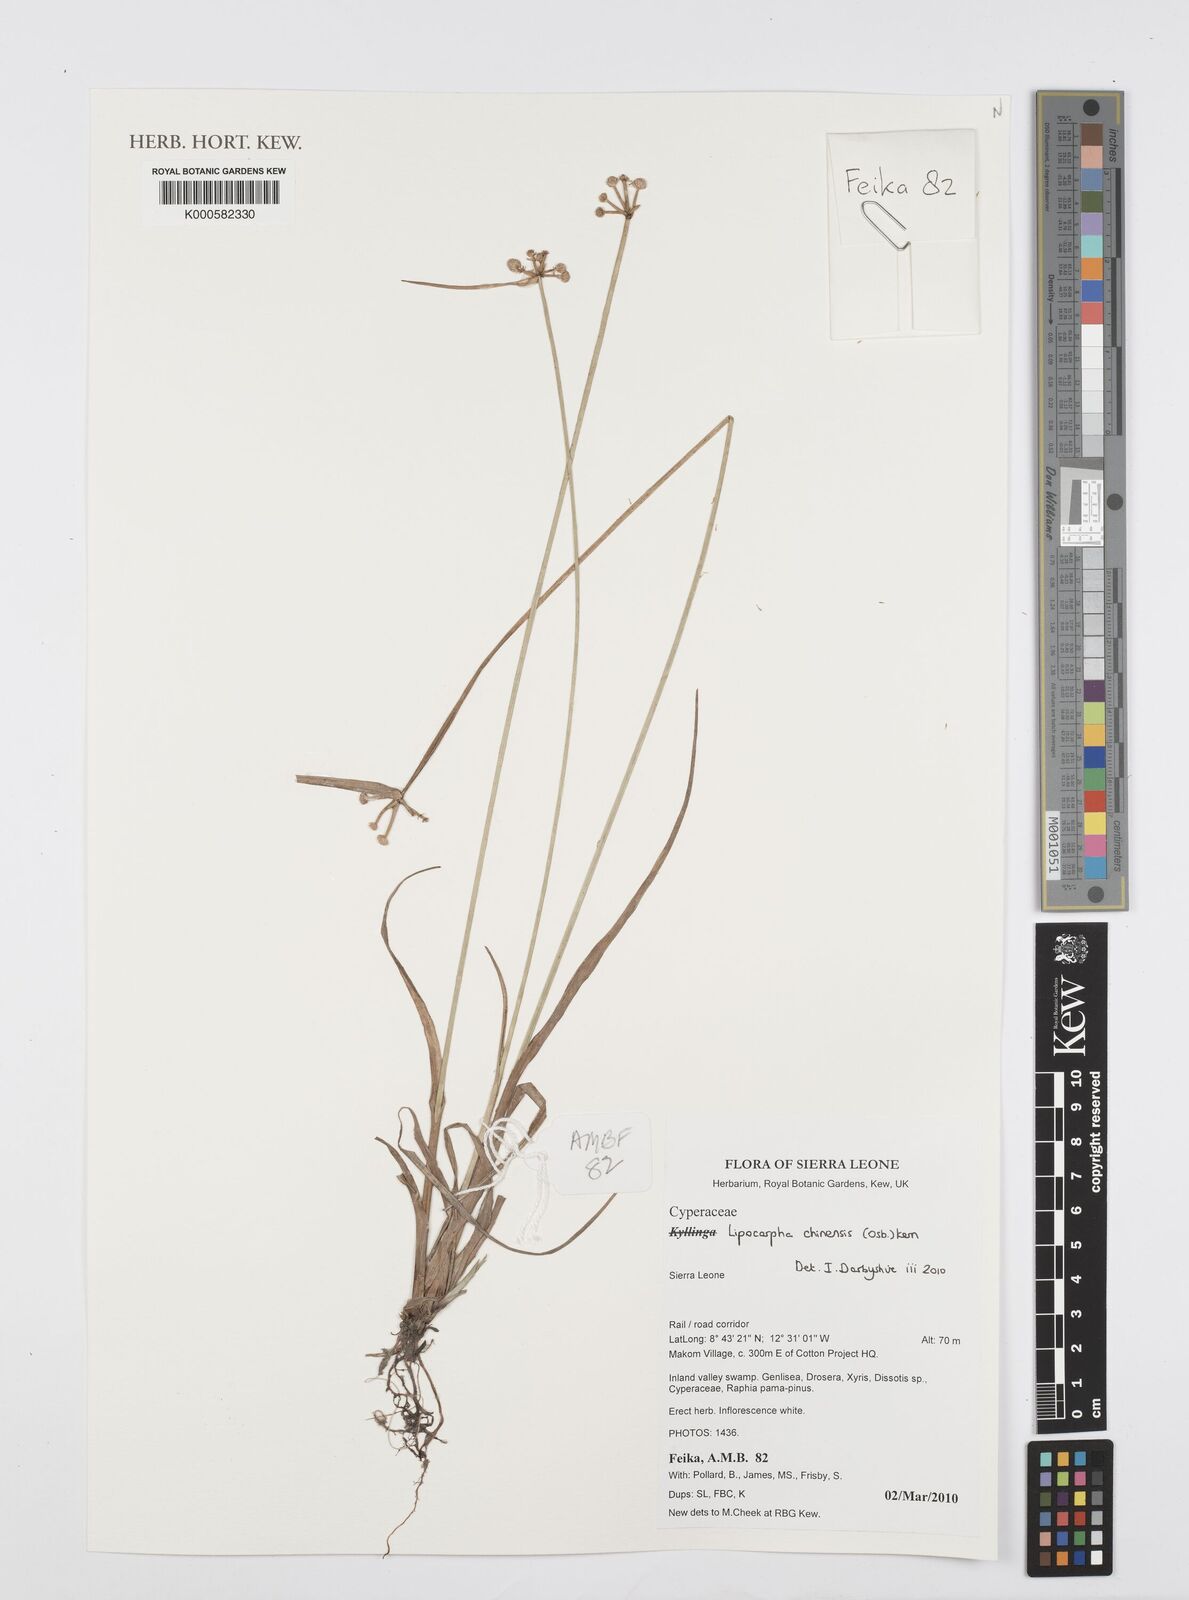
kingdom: Plantae
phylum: Tracheophyta
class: Liliopsida
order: Poales
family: Cyperaceae
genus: Cyperus
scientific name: Cyperus albescens
